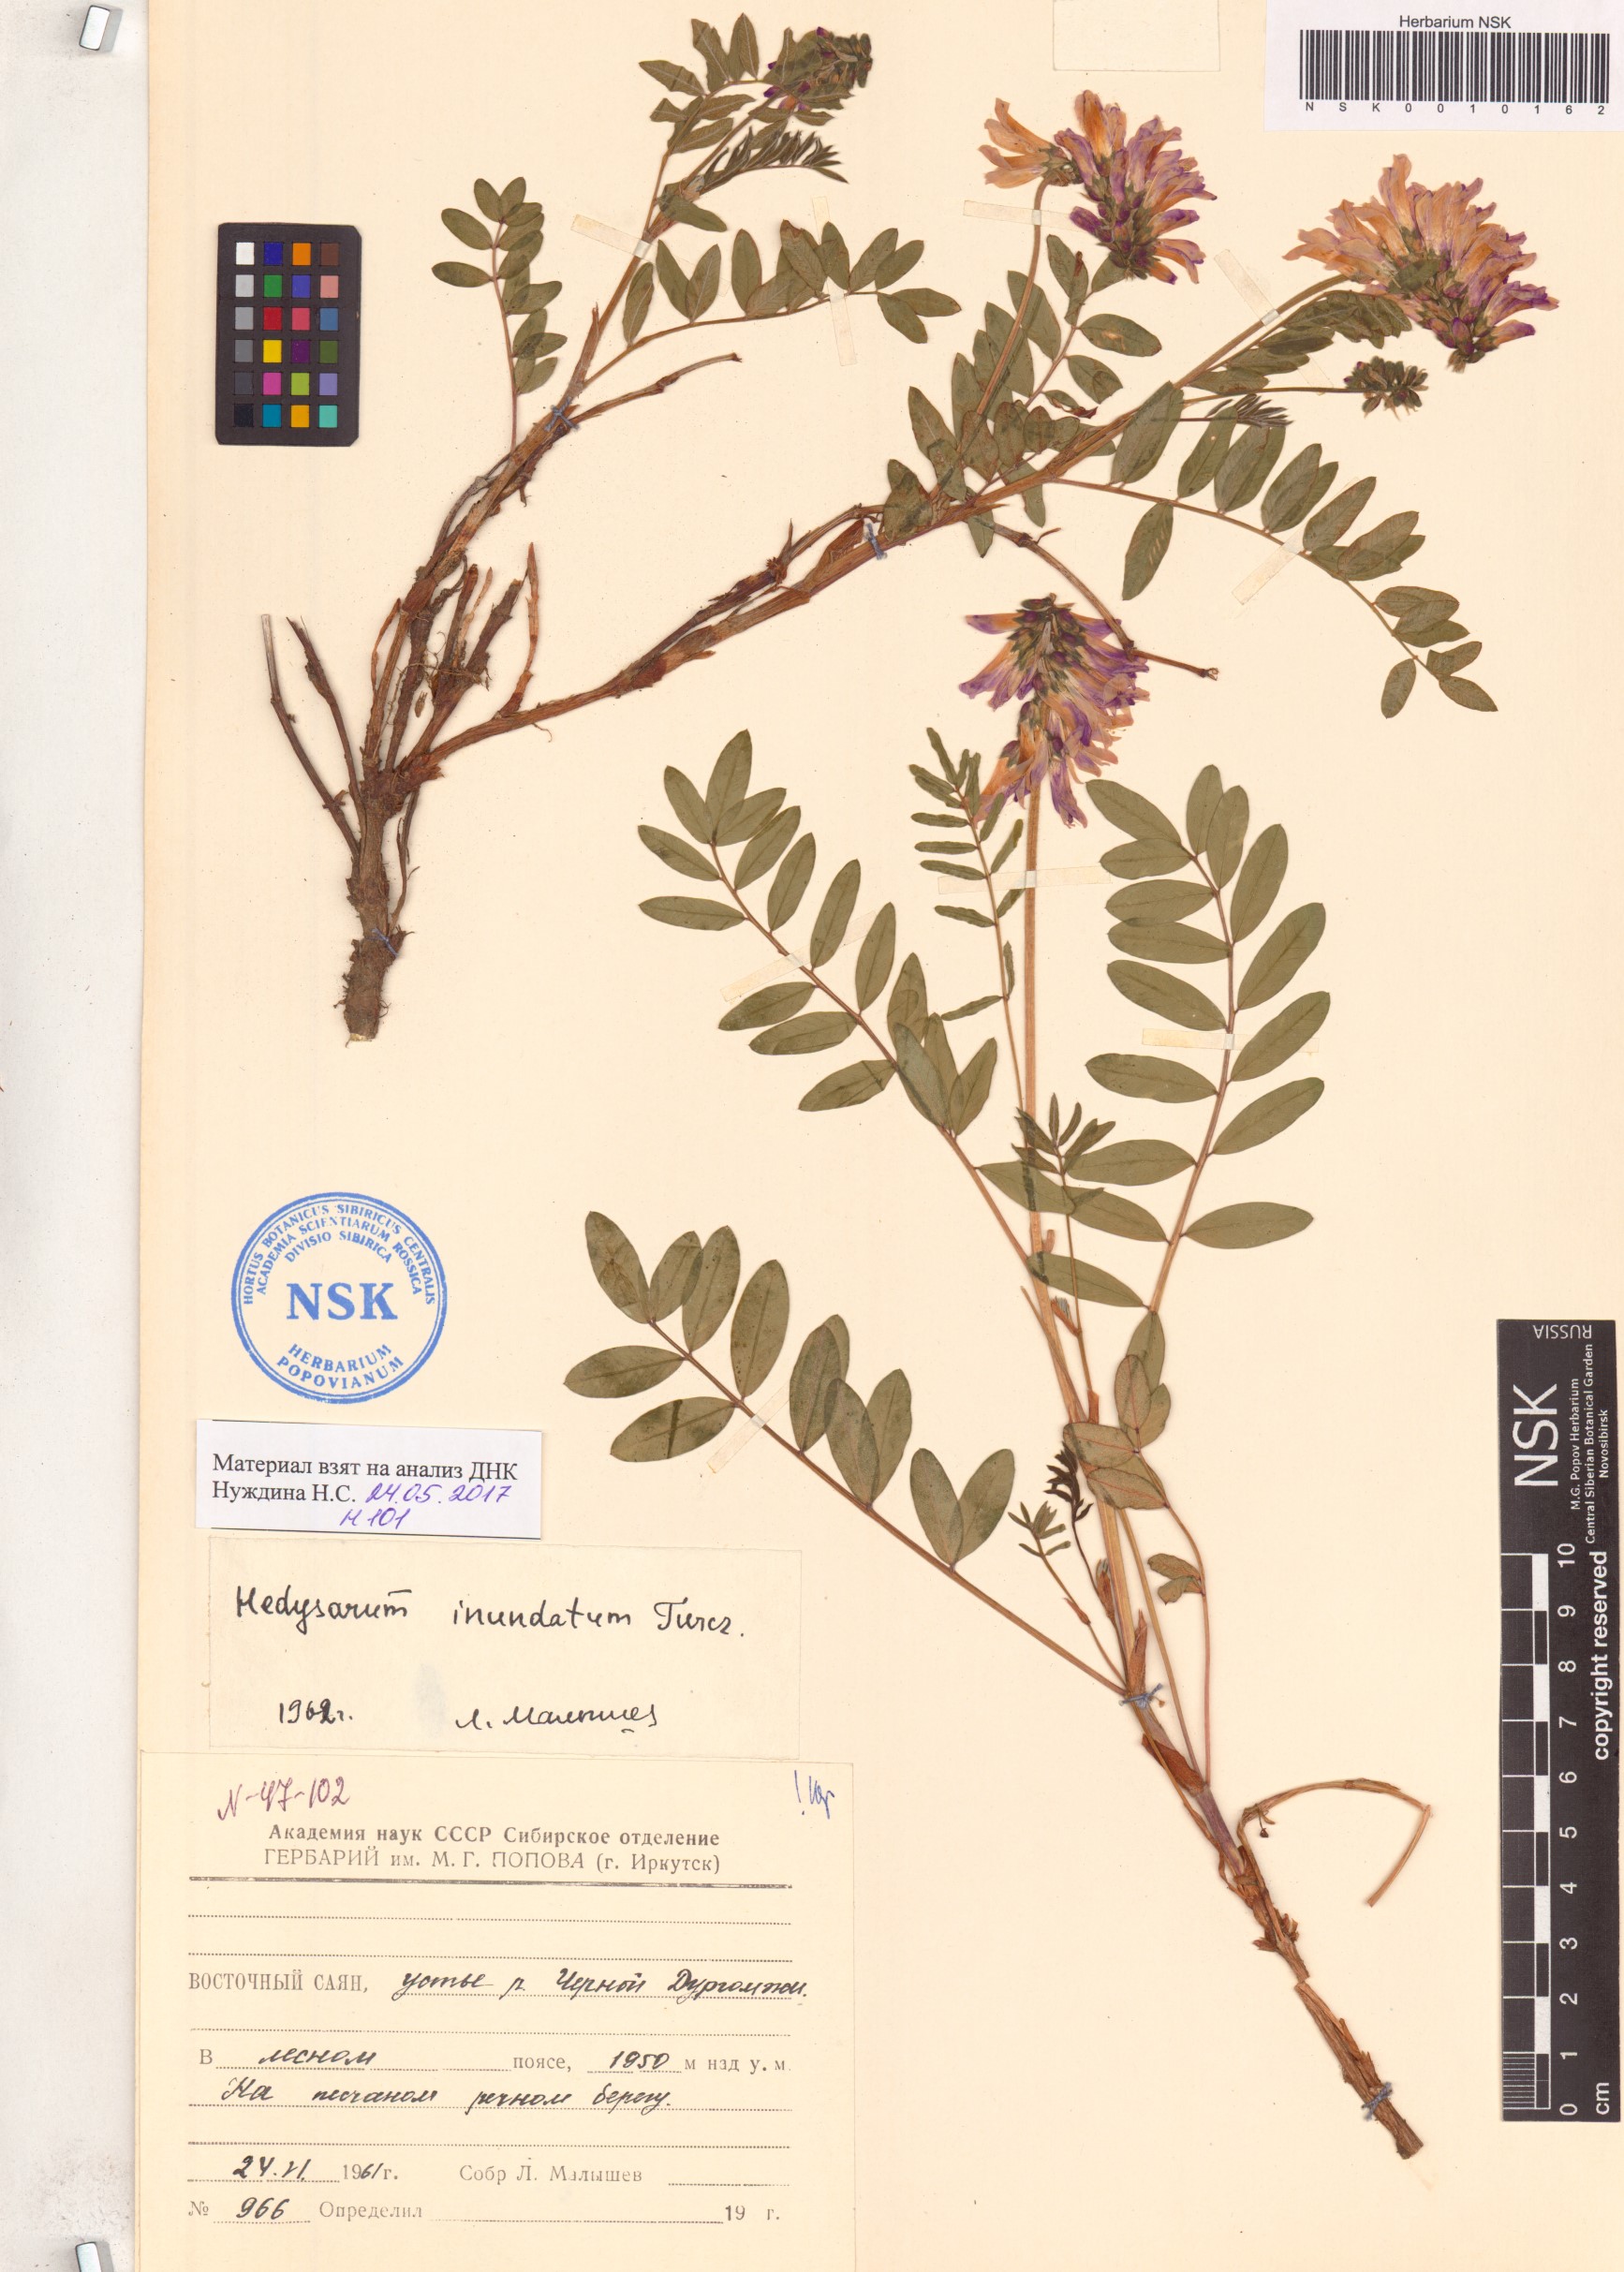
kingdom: Plantae
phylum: Tracheophyta
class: Magnoliopsida
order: Fabales
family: Fabaceae
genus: Hedysarum
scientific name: Hedysarum inundatum
